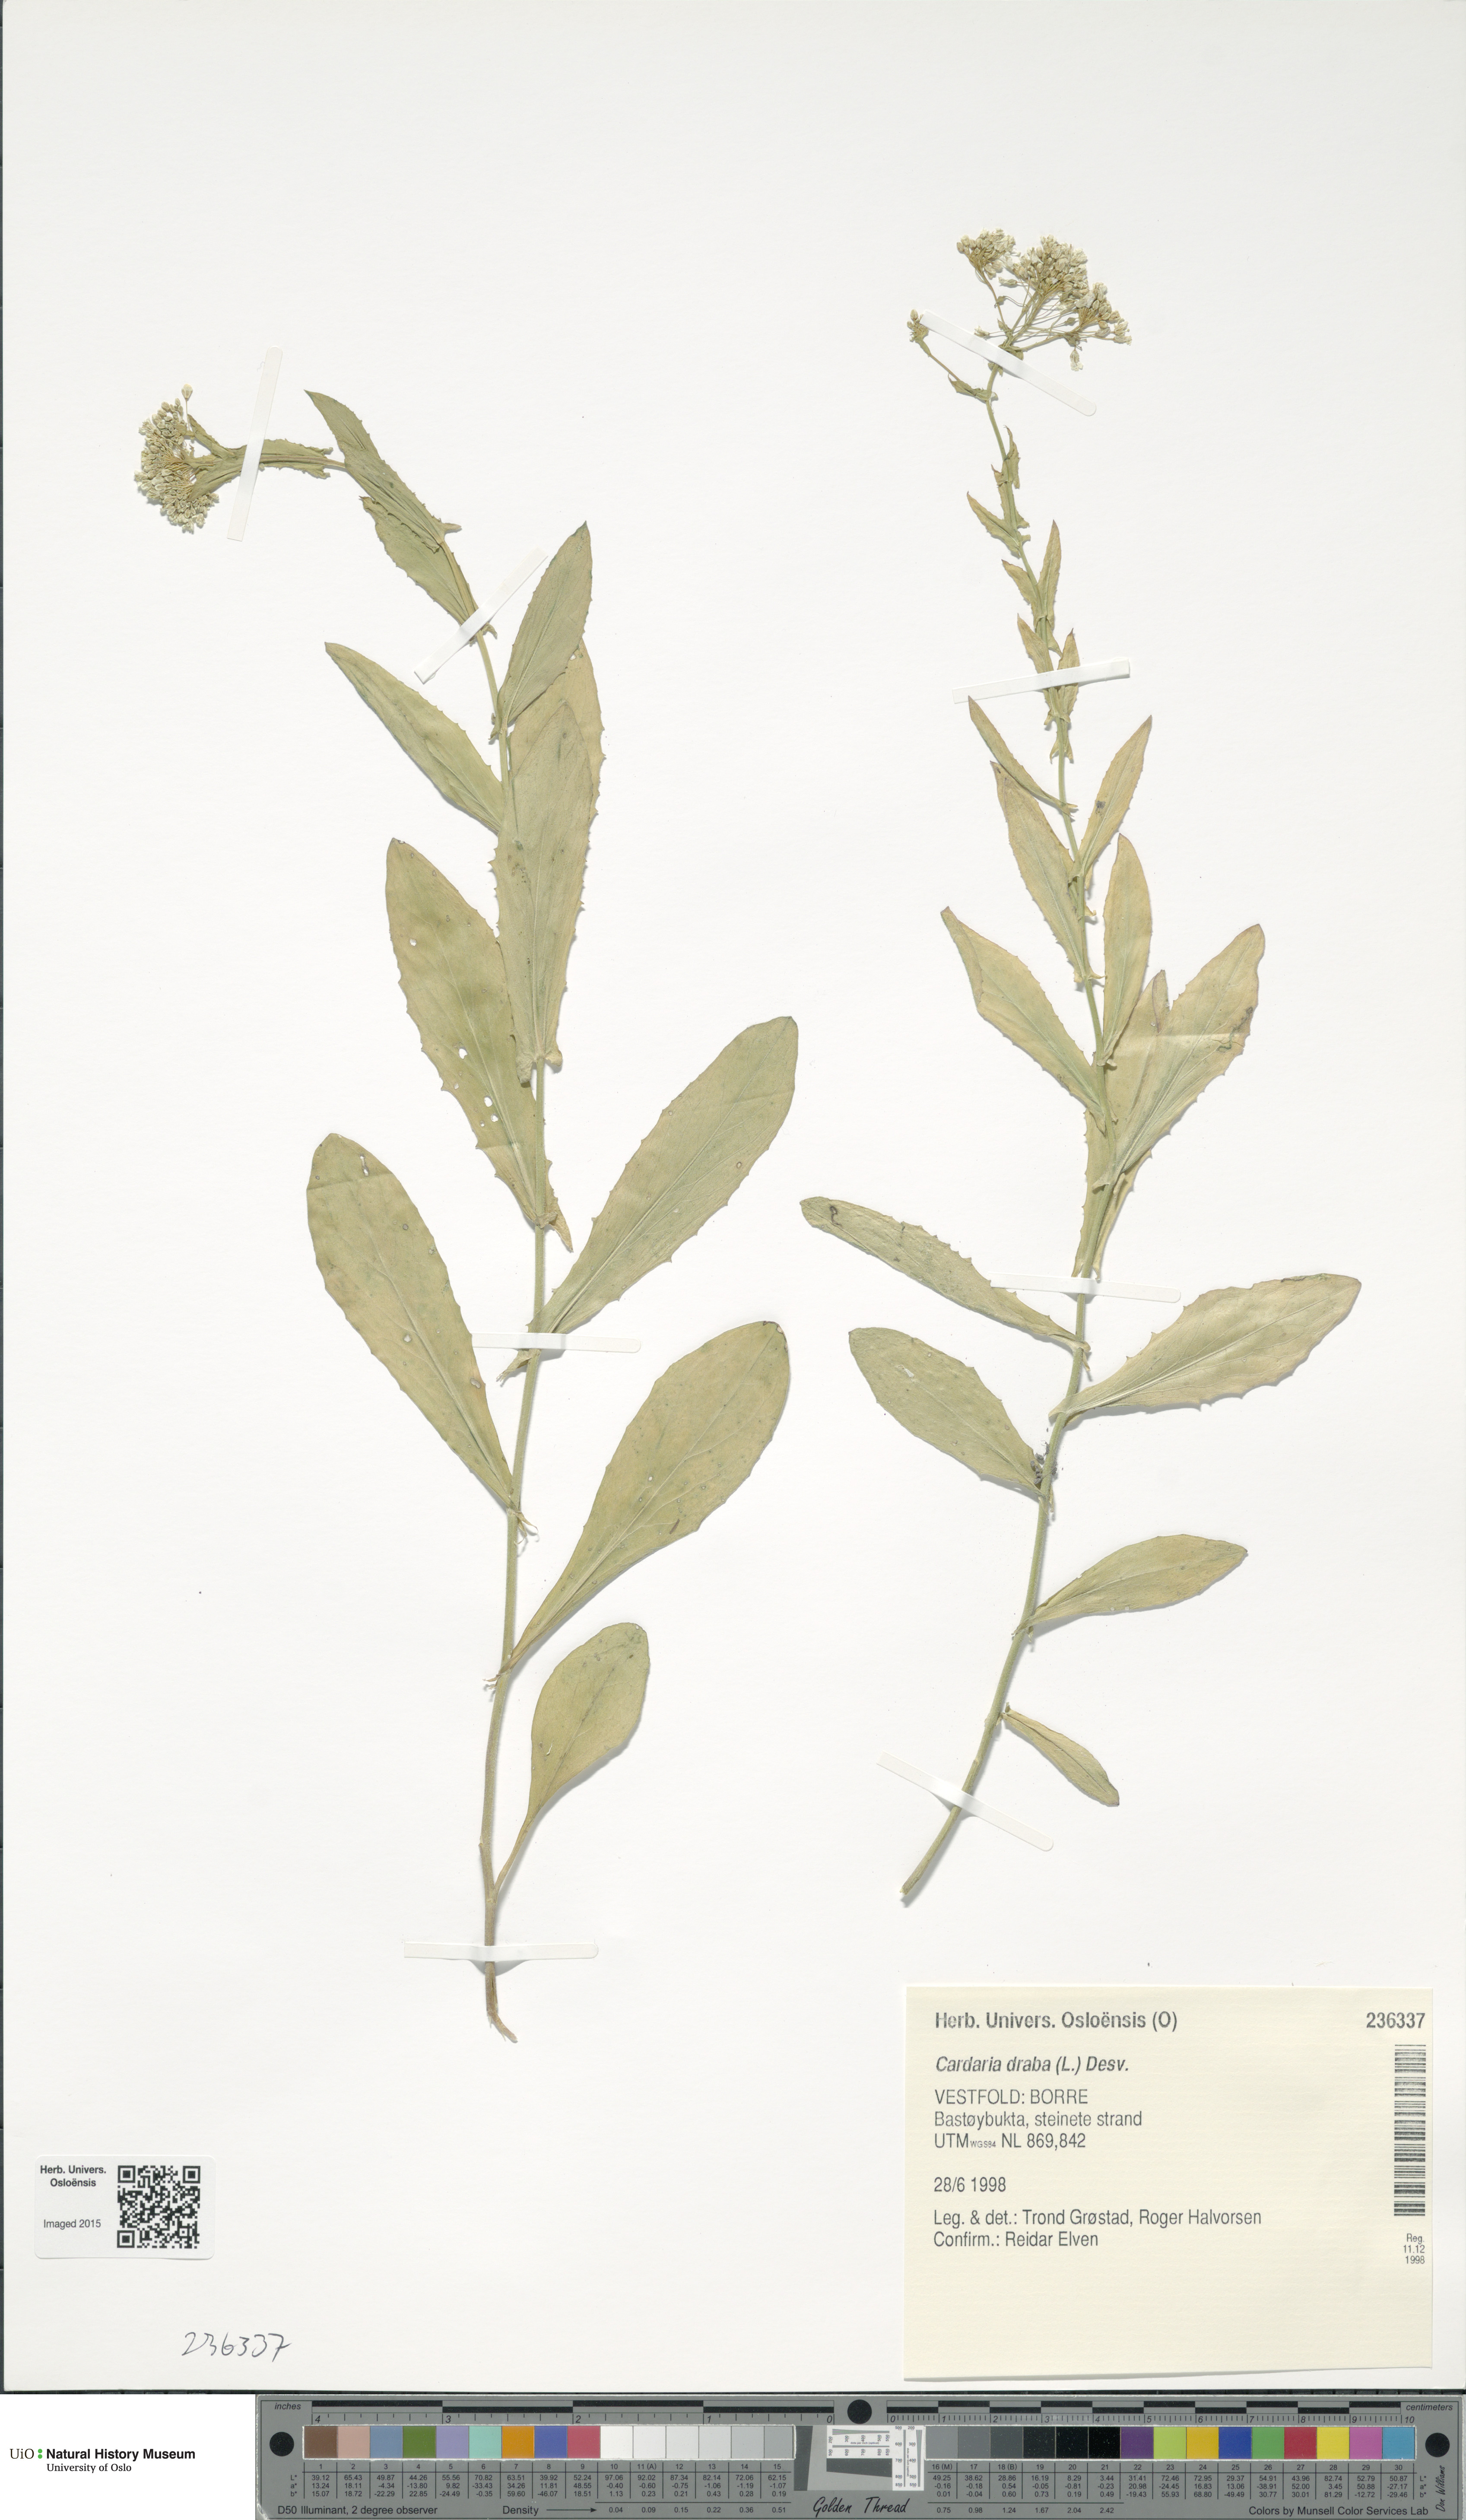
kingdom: Plantae
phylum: Tracheophyta
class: Magnoliopsida
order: Brassicales
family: Brassicaceae
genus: Lepidium
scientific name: Lepidium draba
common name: Hoary cress
